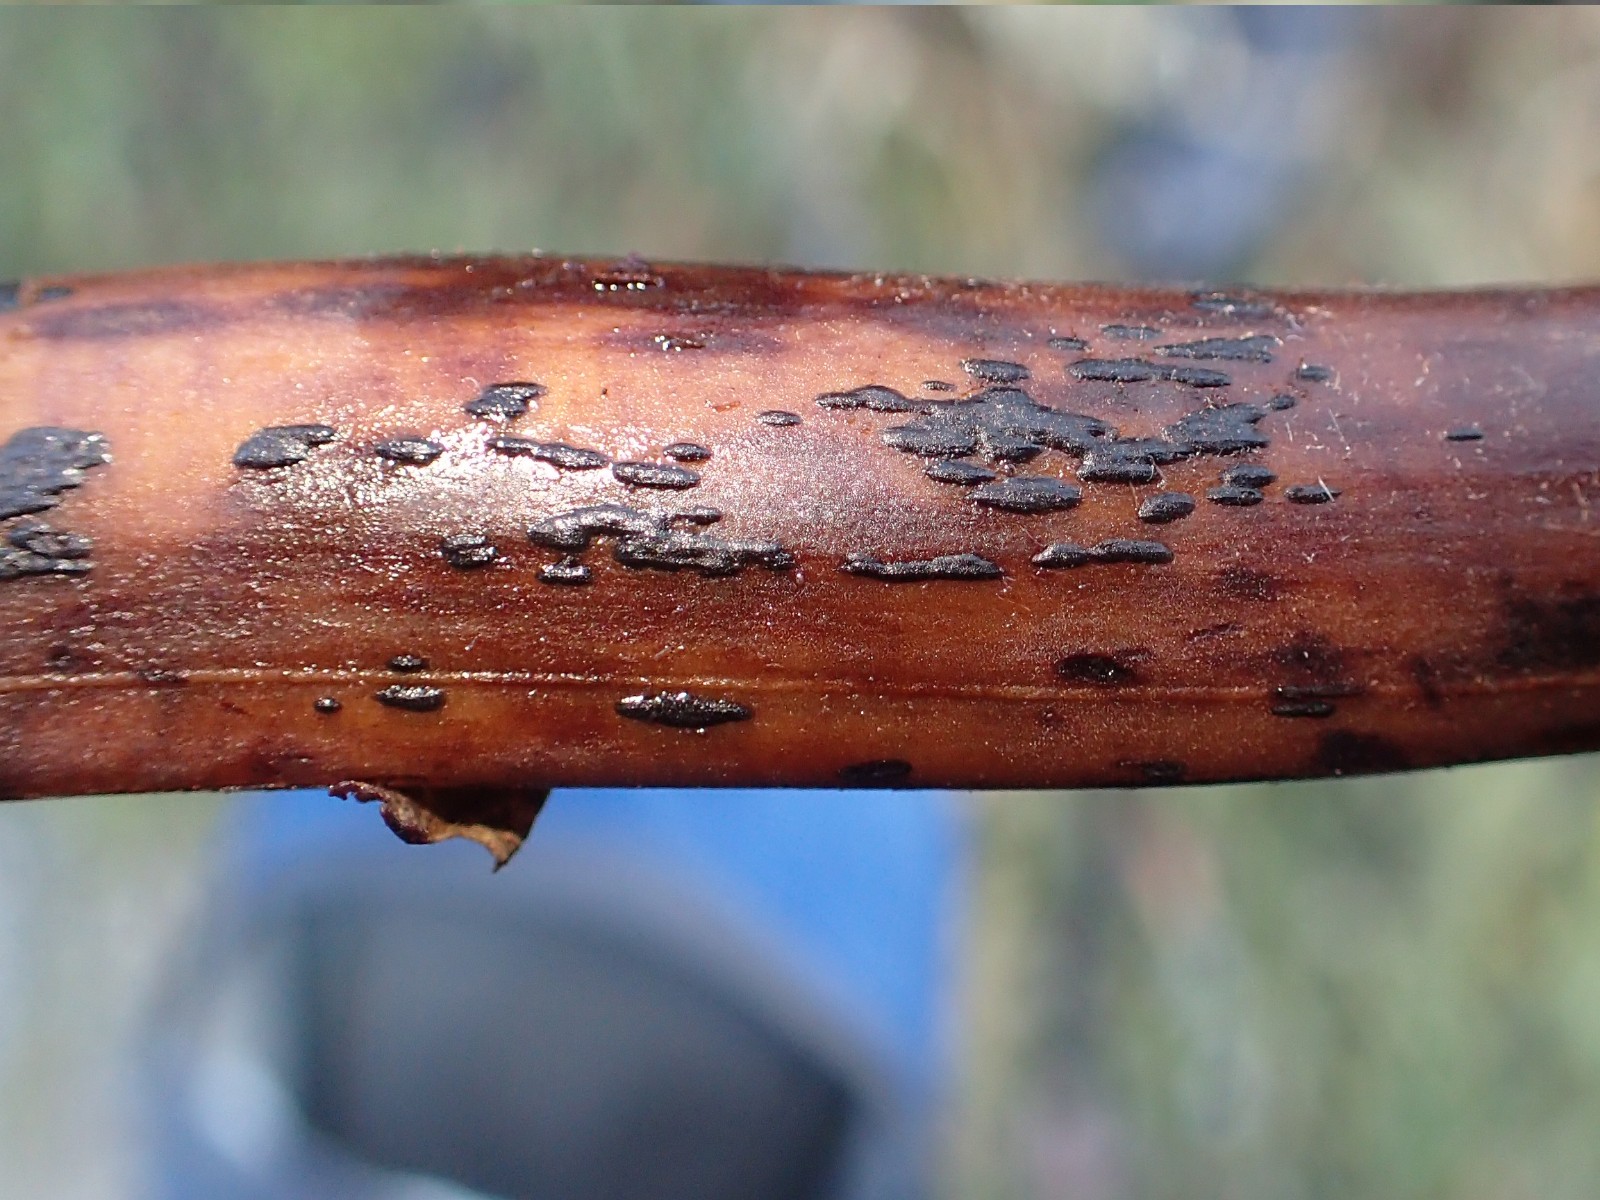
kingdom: Fungi
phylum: Ascomycota
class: Dothideomycetes
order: Pleosporales
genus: Rhopographus
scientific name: Rhopographus filicinus
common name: Bracken map
